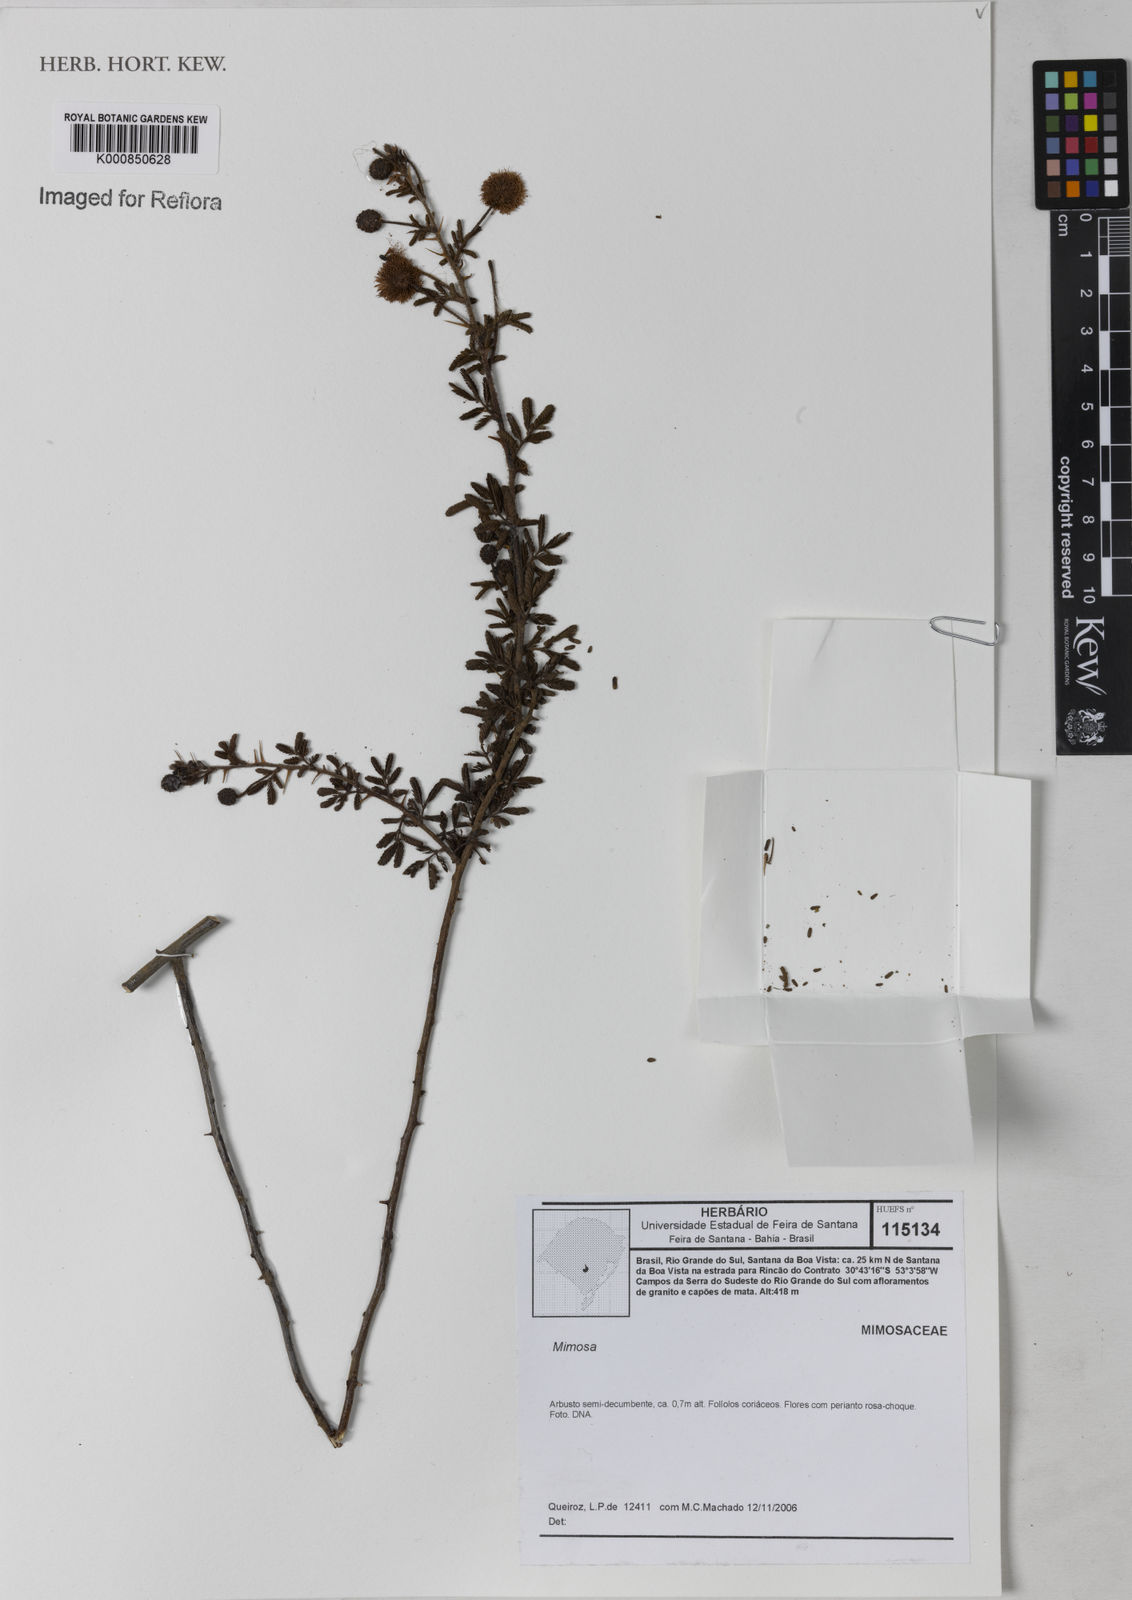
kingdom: Plantae
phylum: Tracheophyta
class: Magnoliopsida
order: Fabales
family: Fabaceae
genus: Mimosa
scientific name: Mimosa
